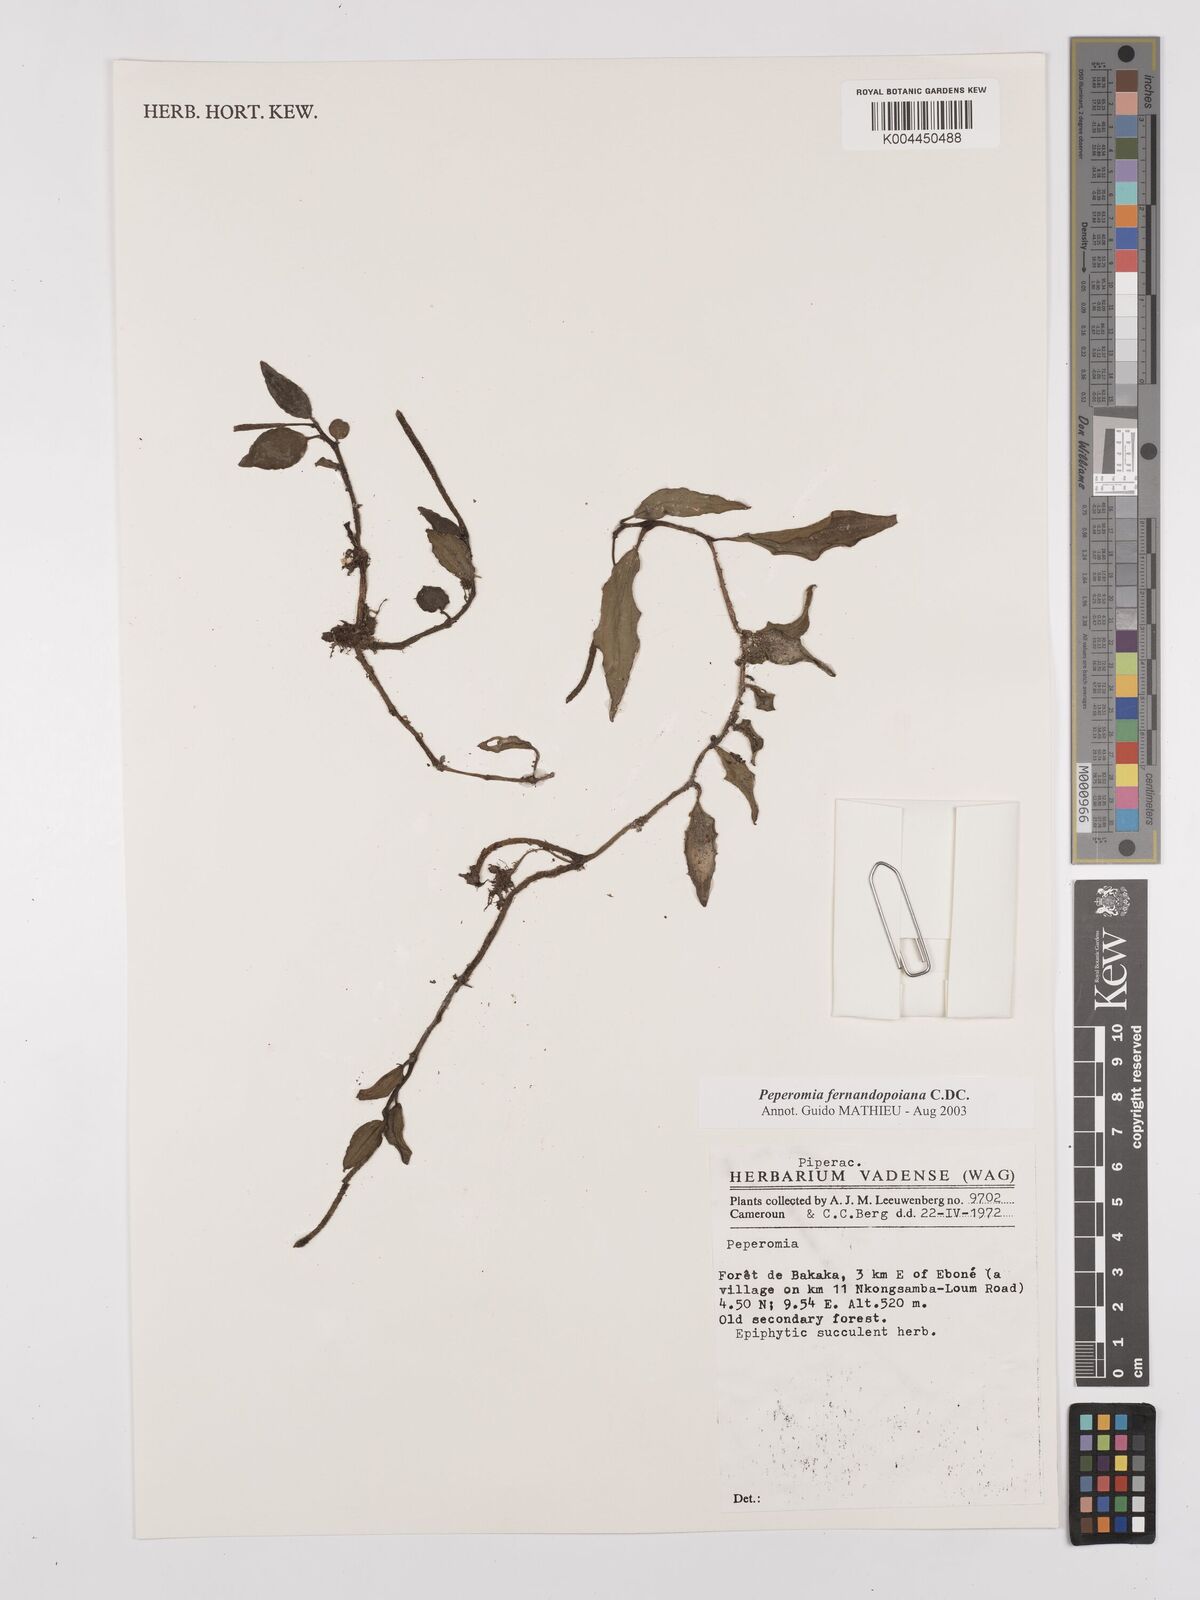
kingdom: Plantae
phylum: Tracheophyta
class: Magnoliopsida
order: Piperales
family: Piperaceae
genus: Peperomia
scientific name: Peperomia fernandopoiana
